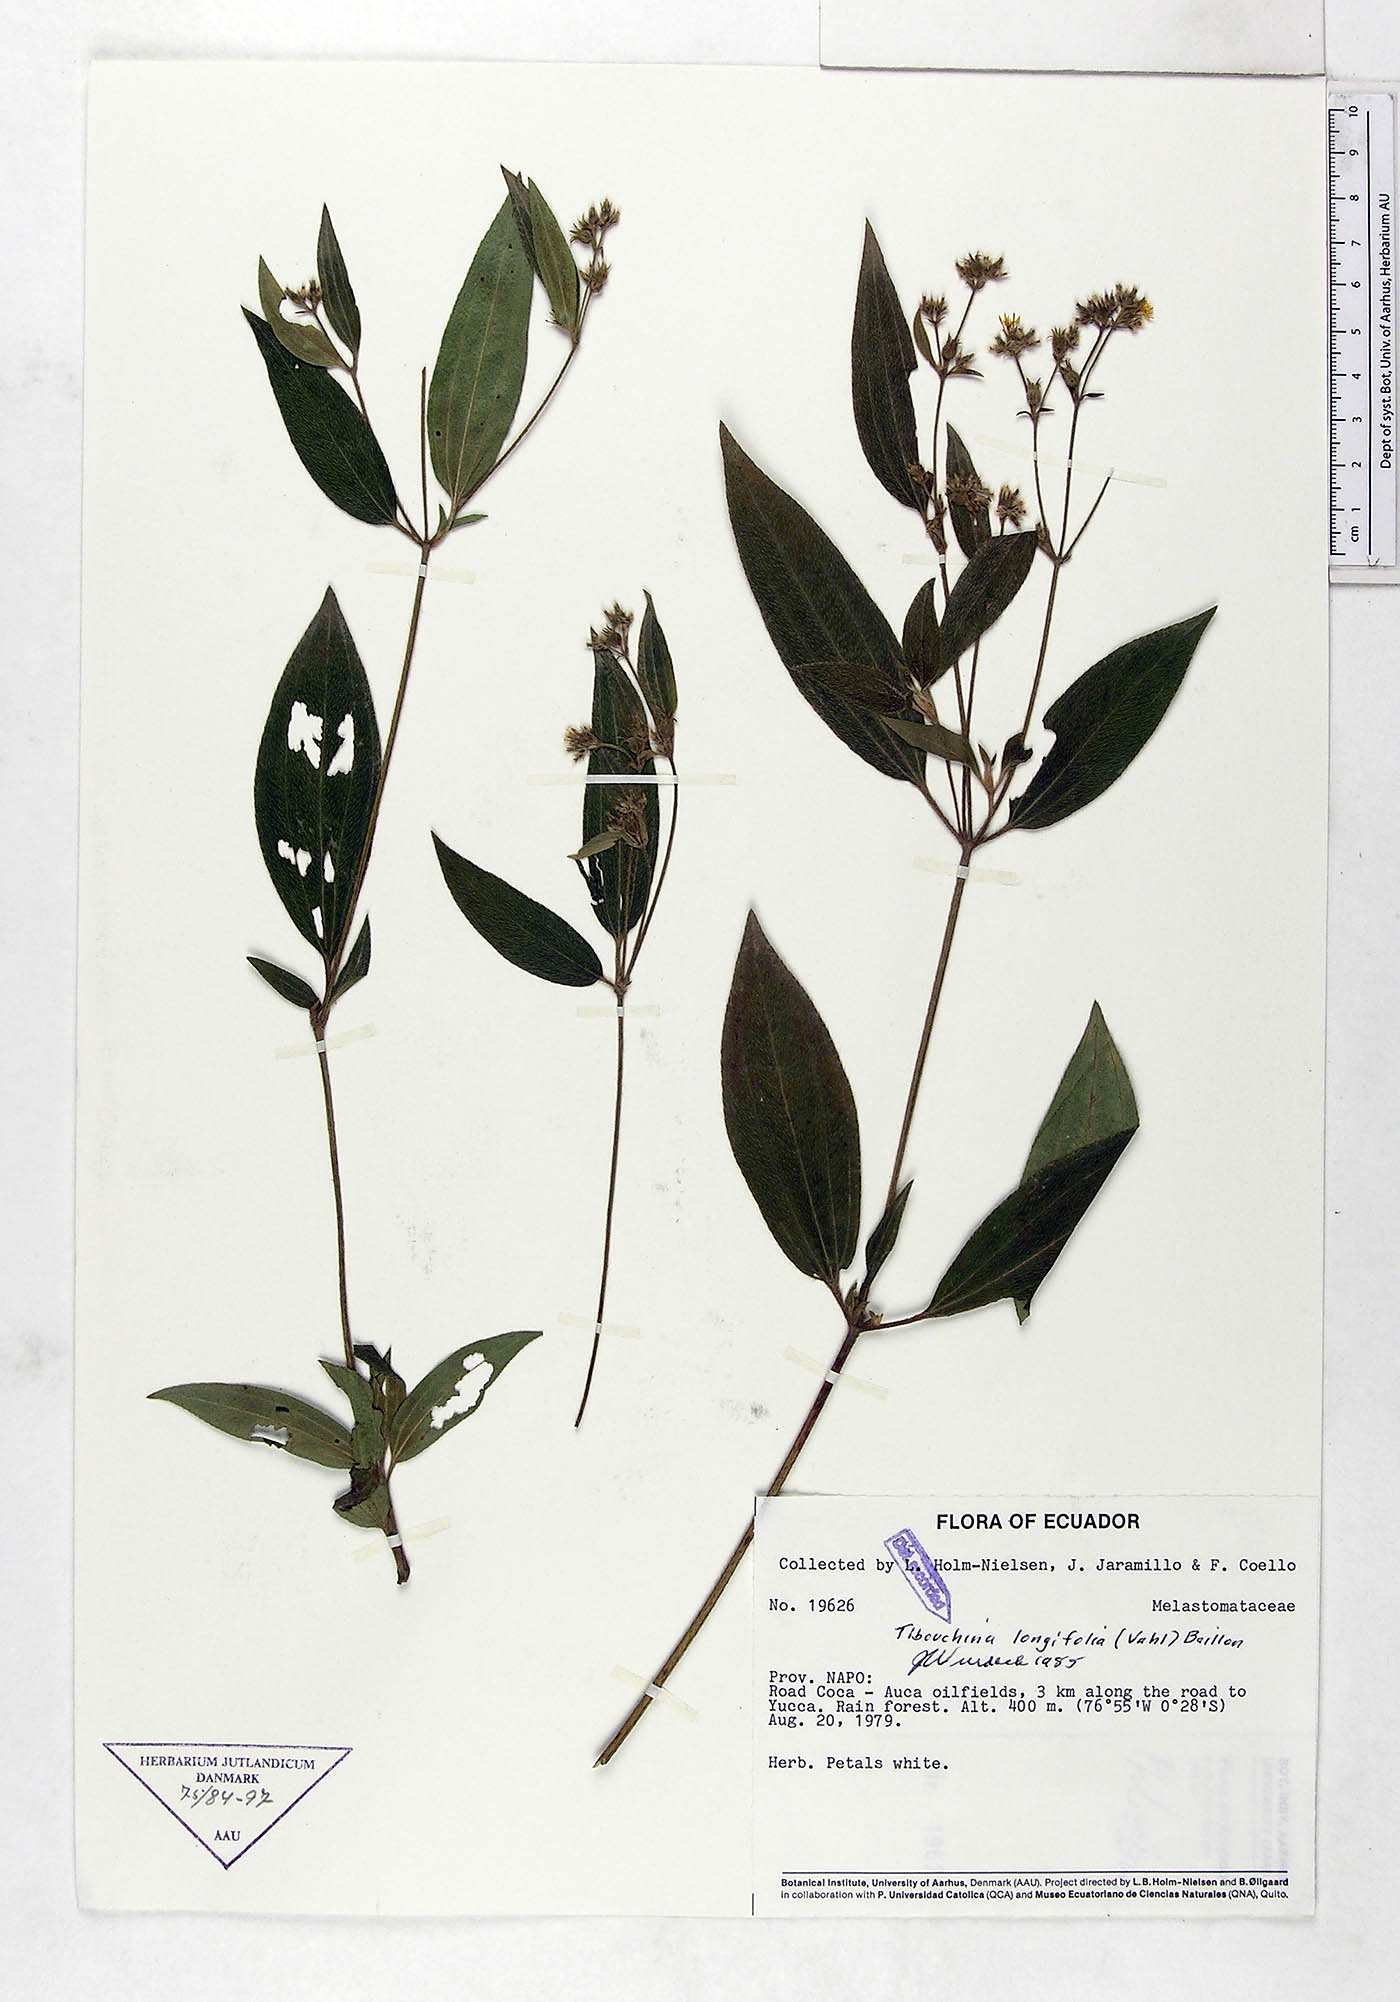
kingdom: Plantae
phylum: Tracheophyta
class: Magnoliopsida
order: Myrtales
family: Melastomataceae
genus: Chaetogastra
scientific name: Chaetogastra longifolia
